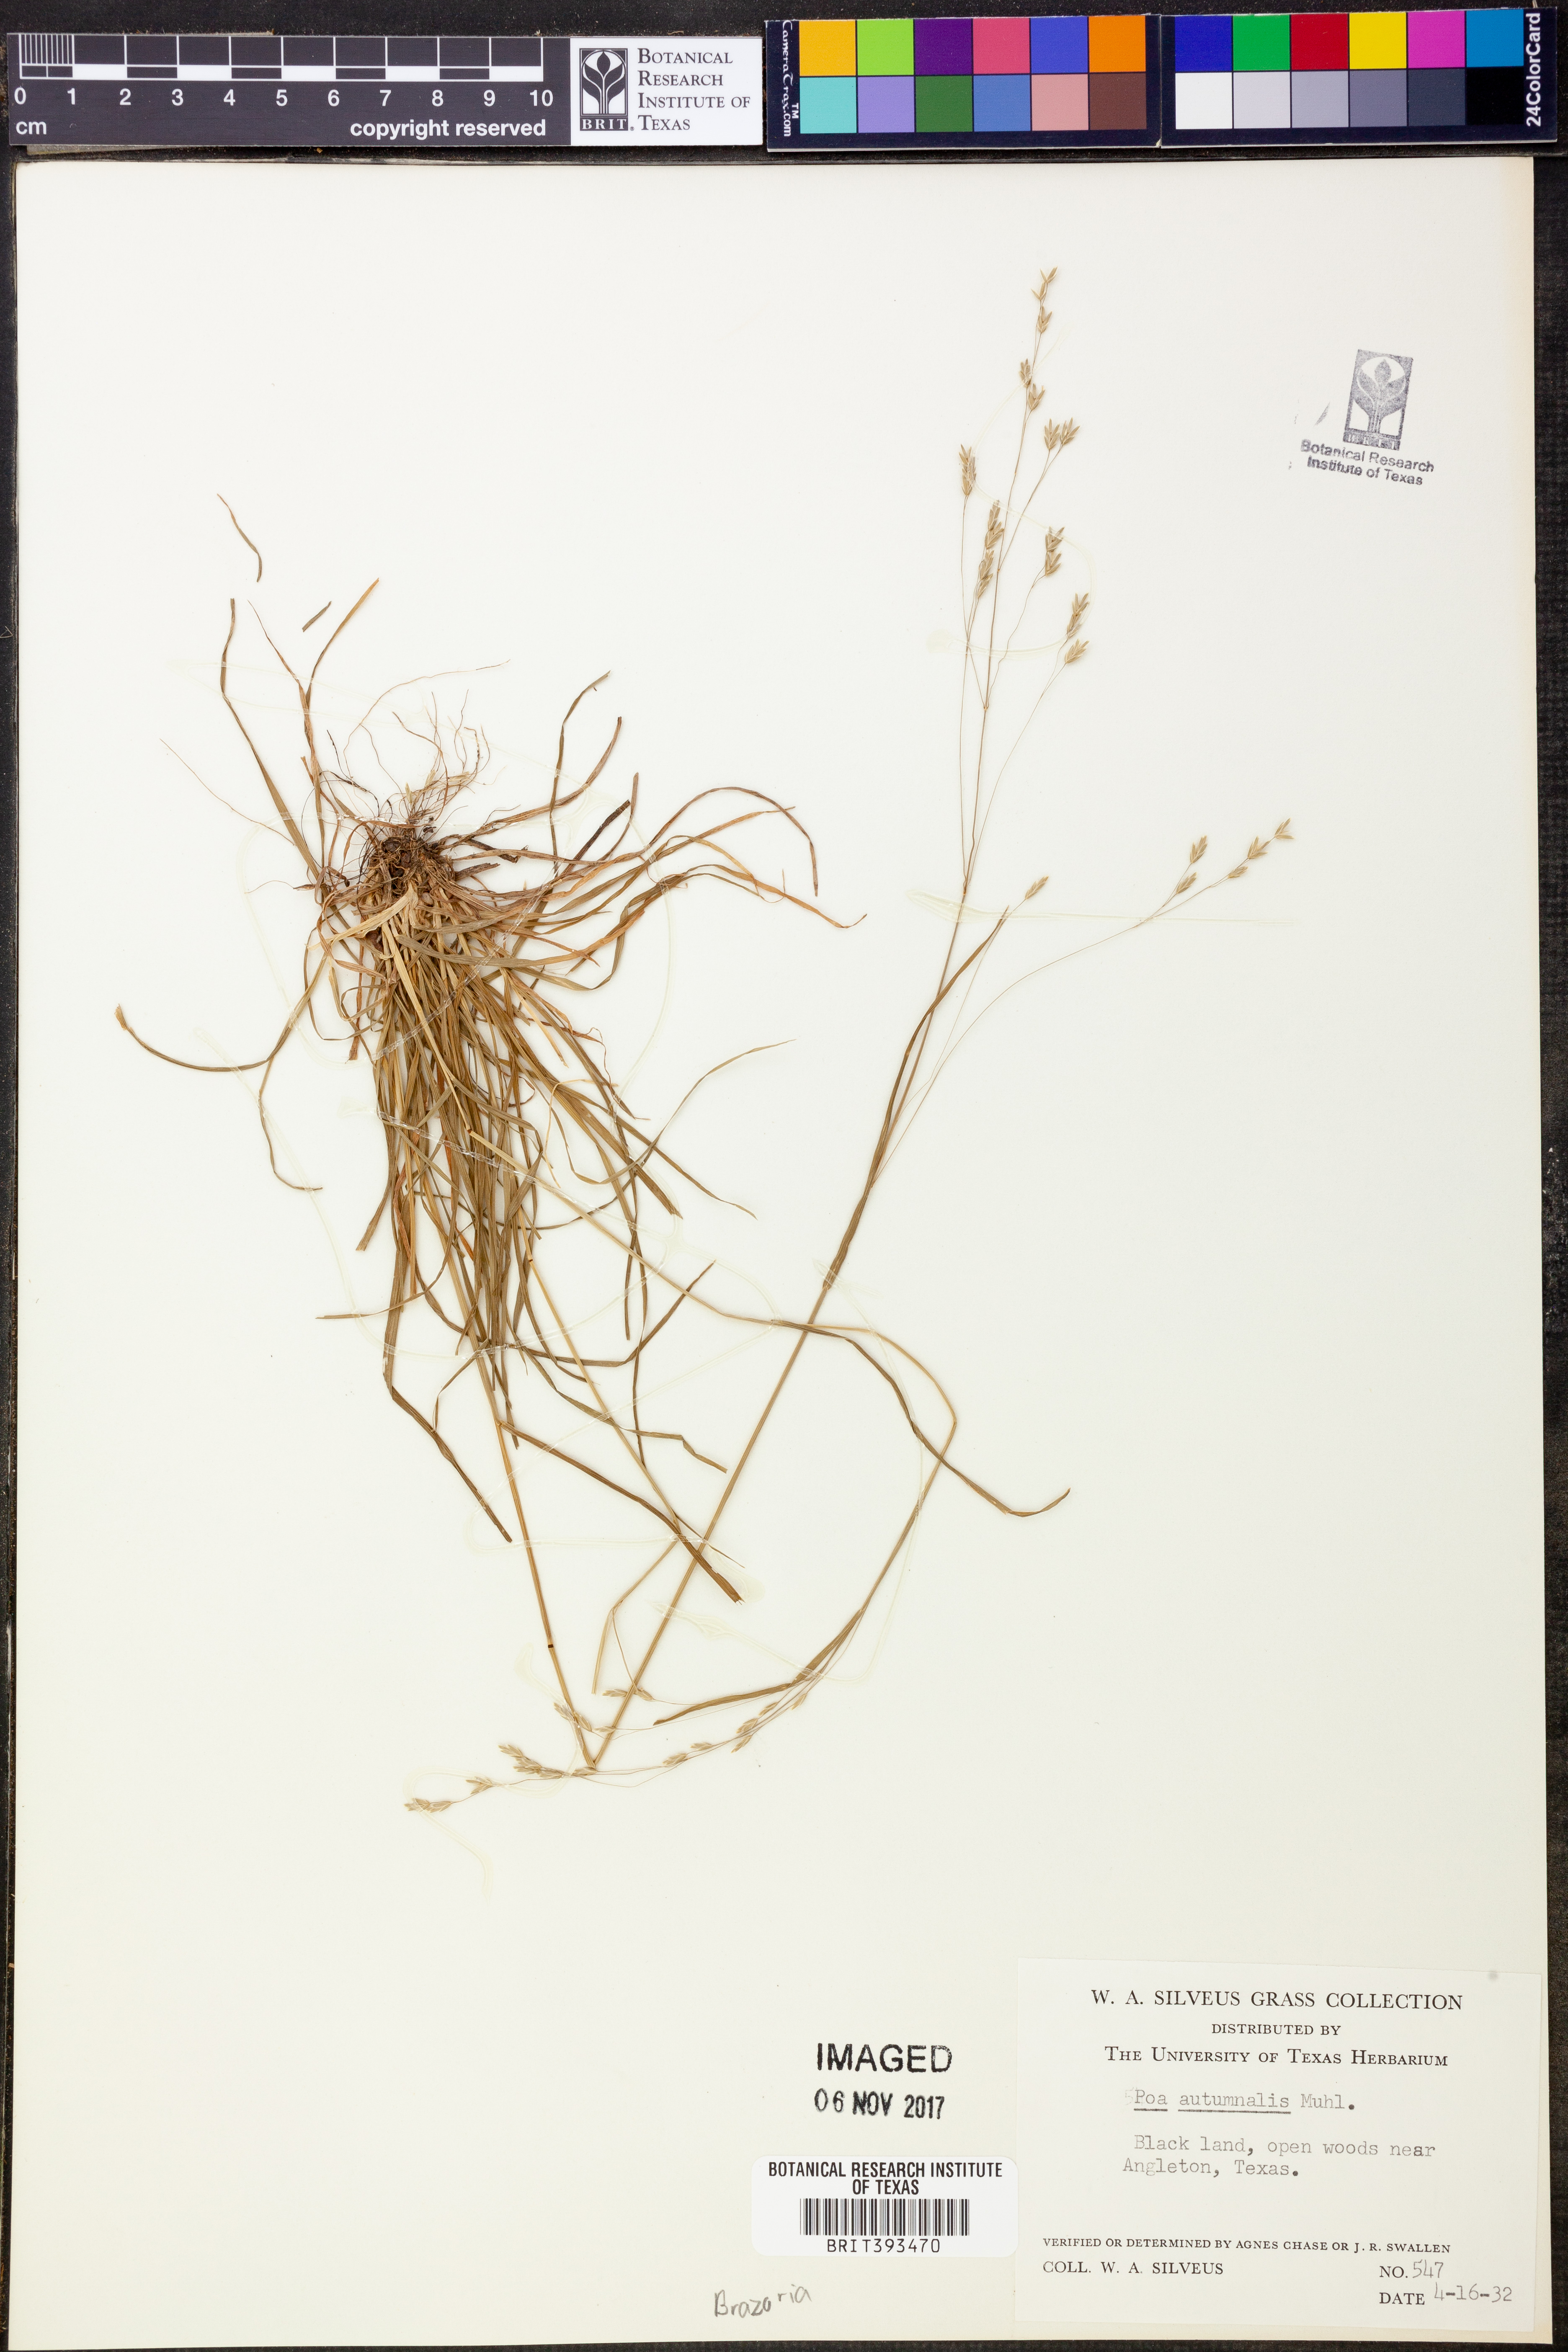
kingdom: Plantae
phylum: Tracheophyta
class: Liliopsida
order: Poales
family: Poaceae
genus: Poa
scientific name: Poa autumnalis
